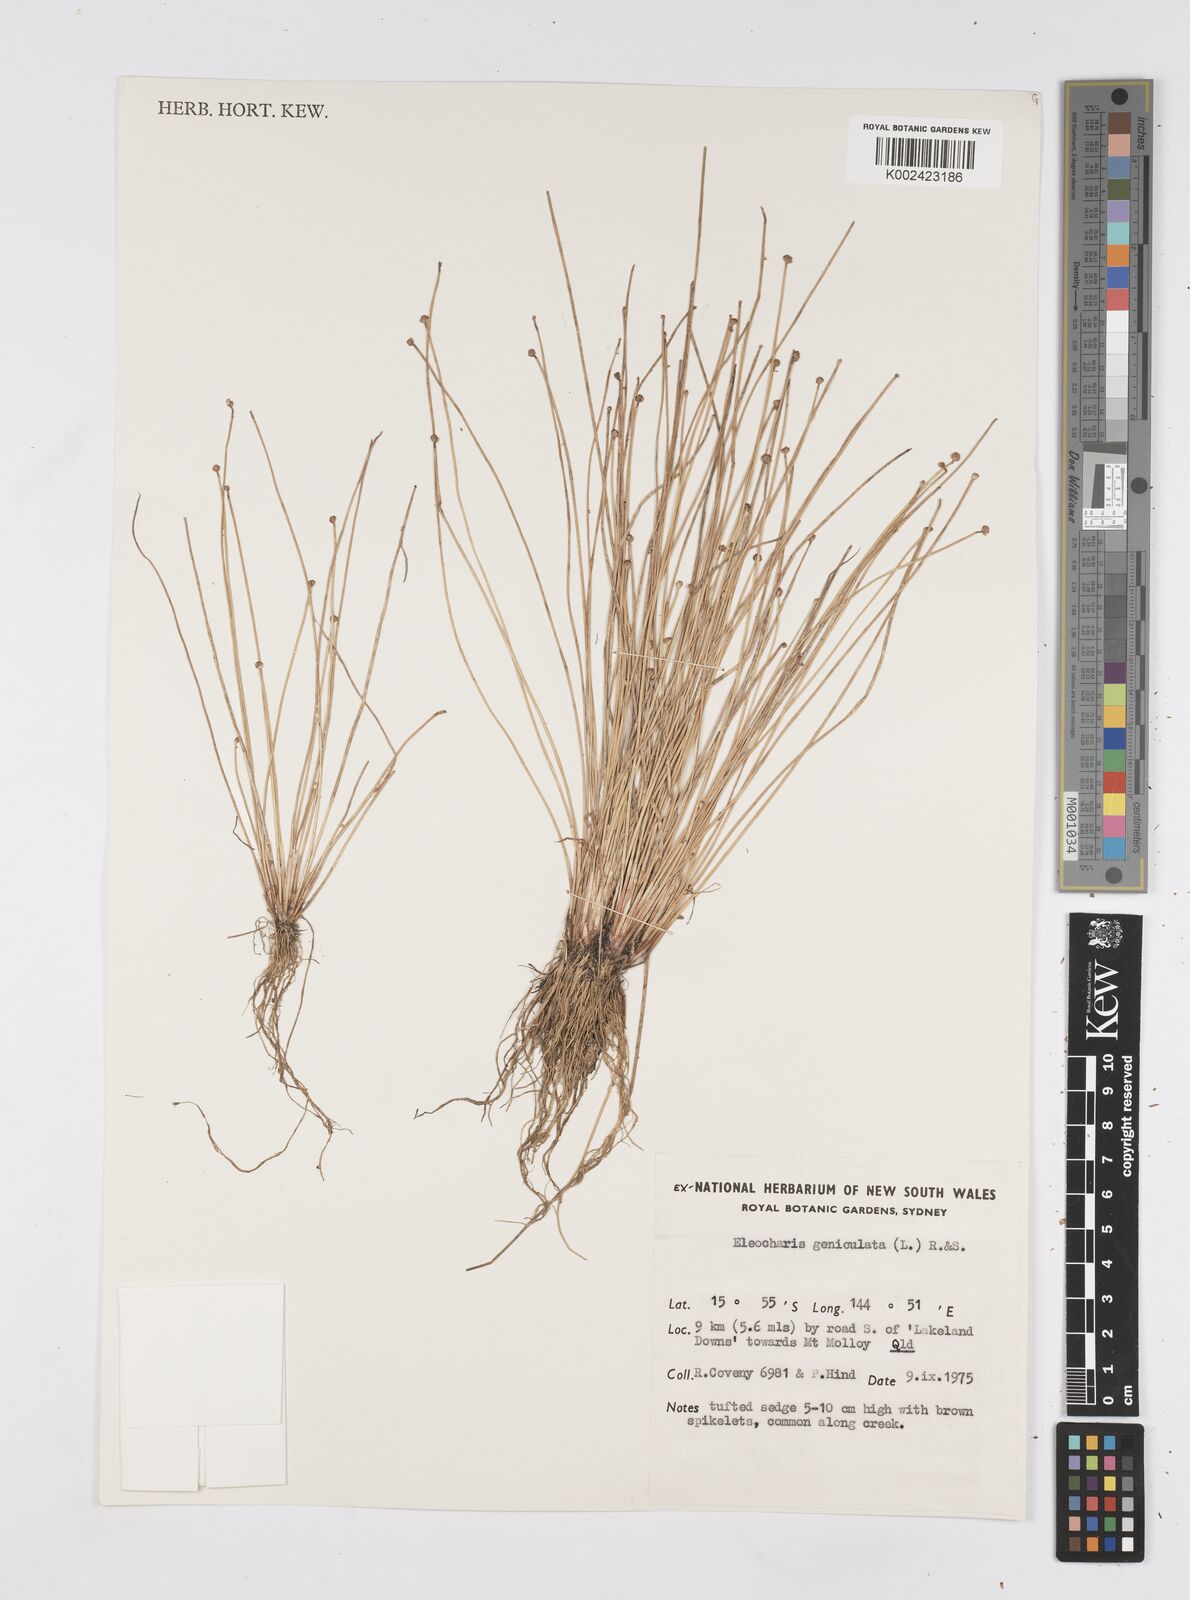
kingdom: Plantae
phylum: Tracheophyta
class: Liliopsida
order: Poales
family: Cyperaceae
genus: Eleocharis
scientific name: Eleocharis geniculata
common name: Canada spikesedge
